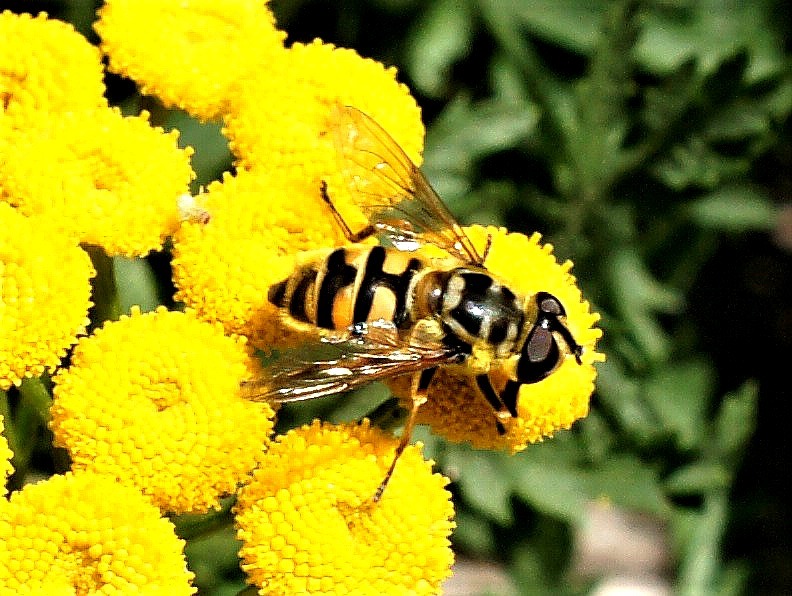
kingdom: Animalia
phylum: Arthropoda
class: Insecta
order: Diptera
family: Syrphidae
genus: Myathropa
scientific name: Myathropa florea
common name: Dødningehoved-svirreflue
